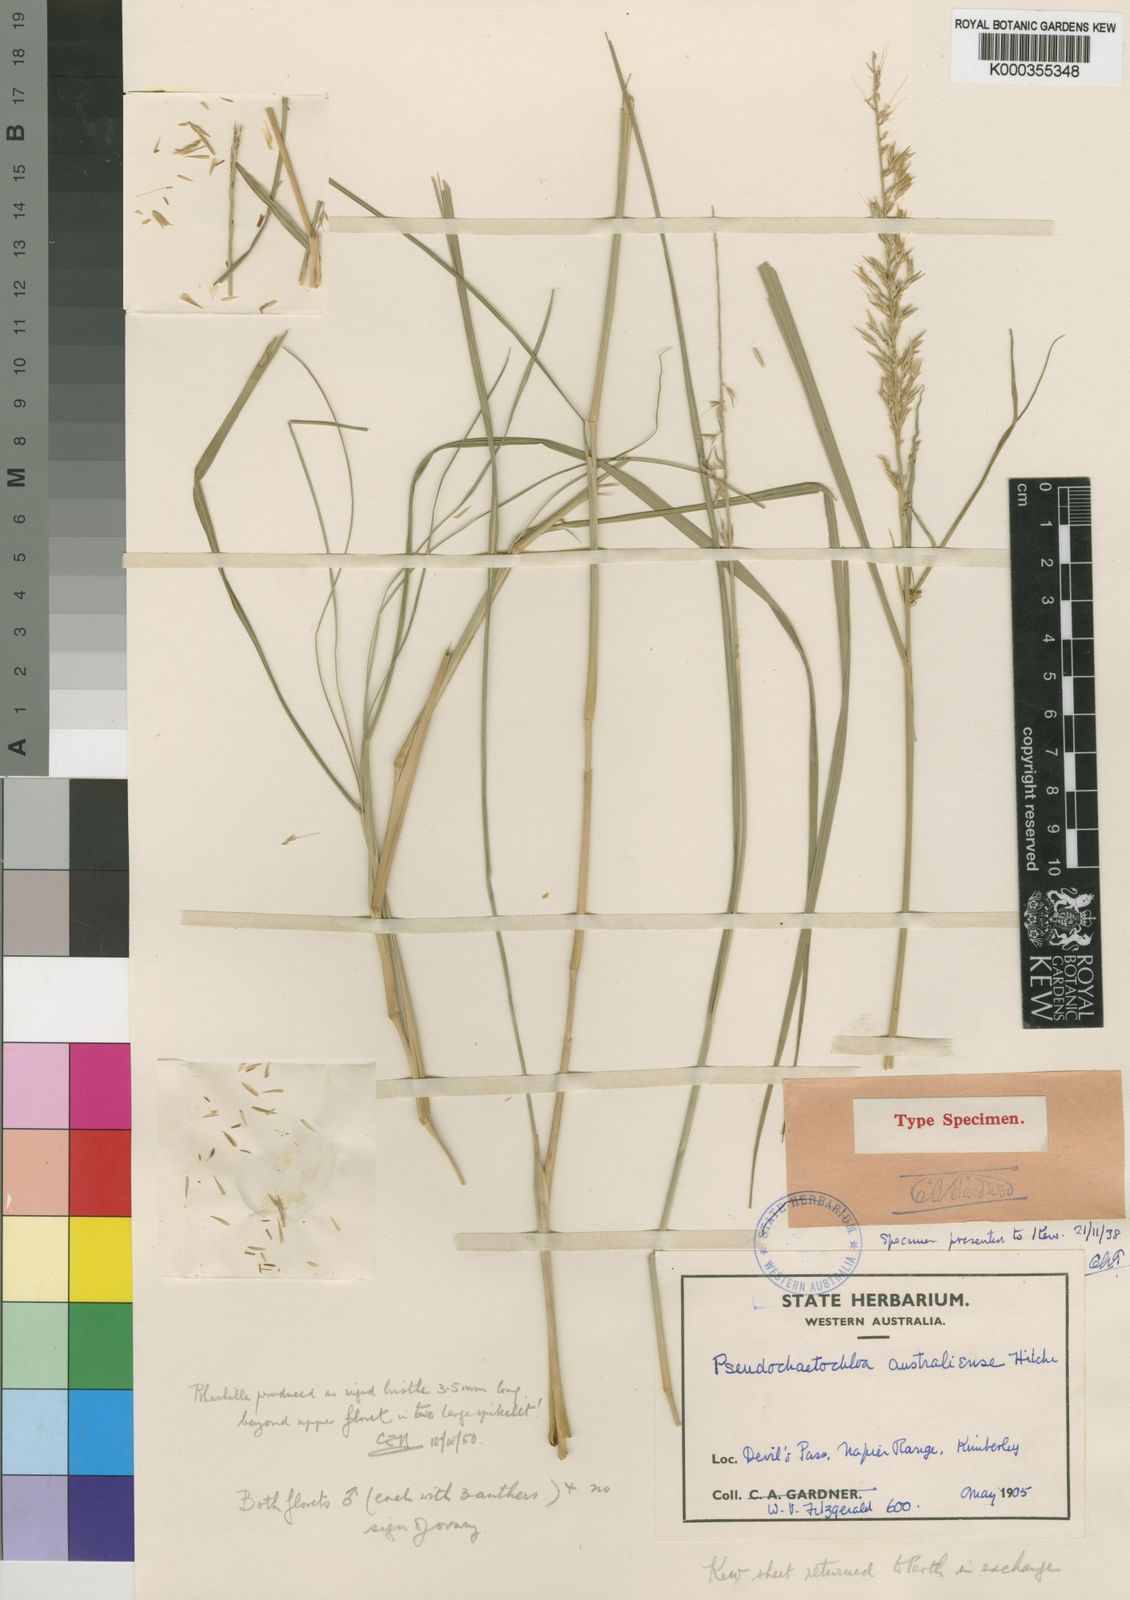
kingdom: Plantae
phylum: Tracheophyta
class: Liliopsida
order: Poales
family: Poaceae
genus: Cenchrus
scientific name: Cenchrus arnhemicus
